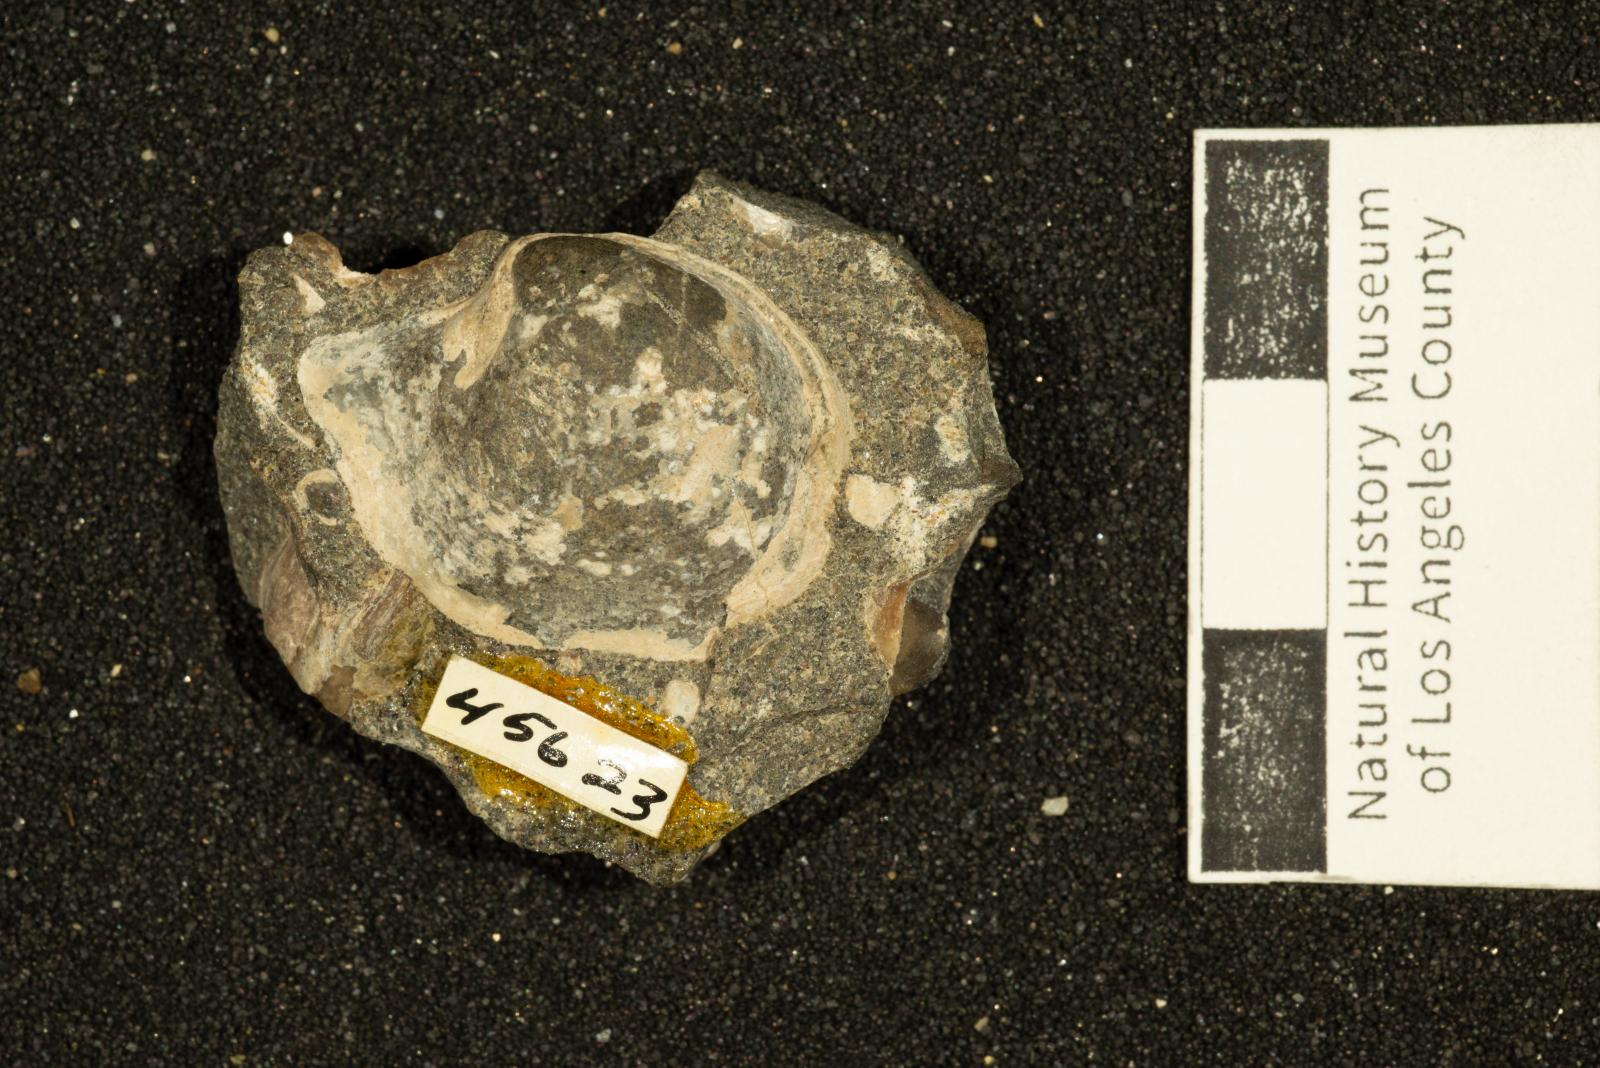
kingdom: Animalia
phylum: Mollusca
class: Bivalvia
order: Cardiida
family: Tancrediidae
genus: Meekia
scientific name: Meekia takeoana
